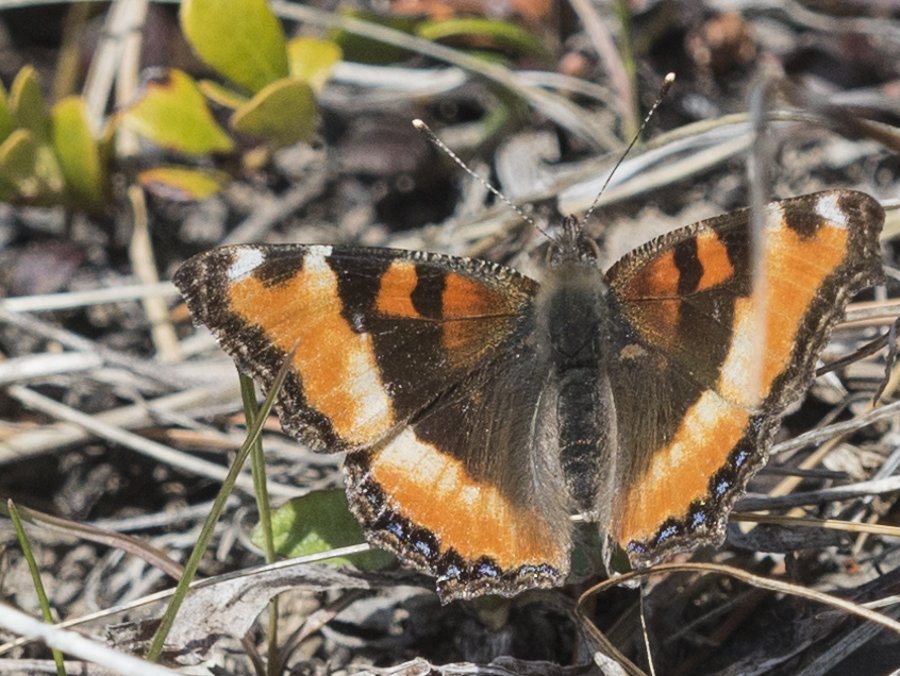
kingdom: Animalia
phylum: Arthropoda
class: Insecta
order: Lepidoptera
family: Nymphalidae
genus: Aglais
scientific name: Aglais milberti
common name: Milbert's Tortoiseshell
